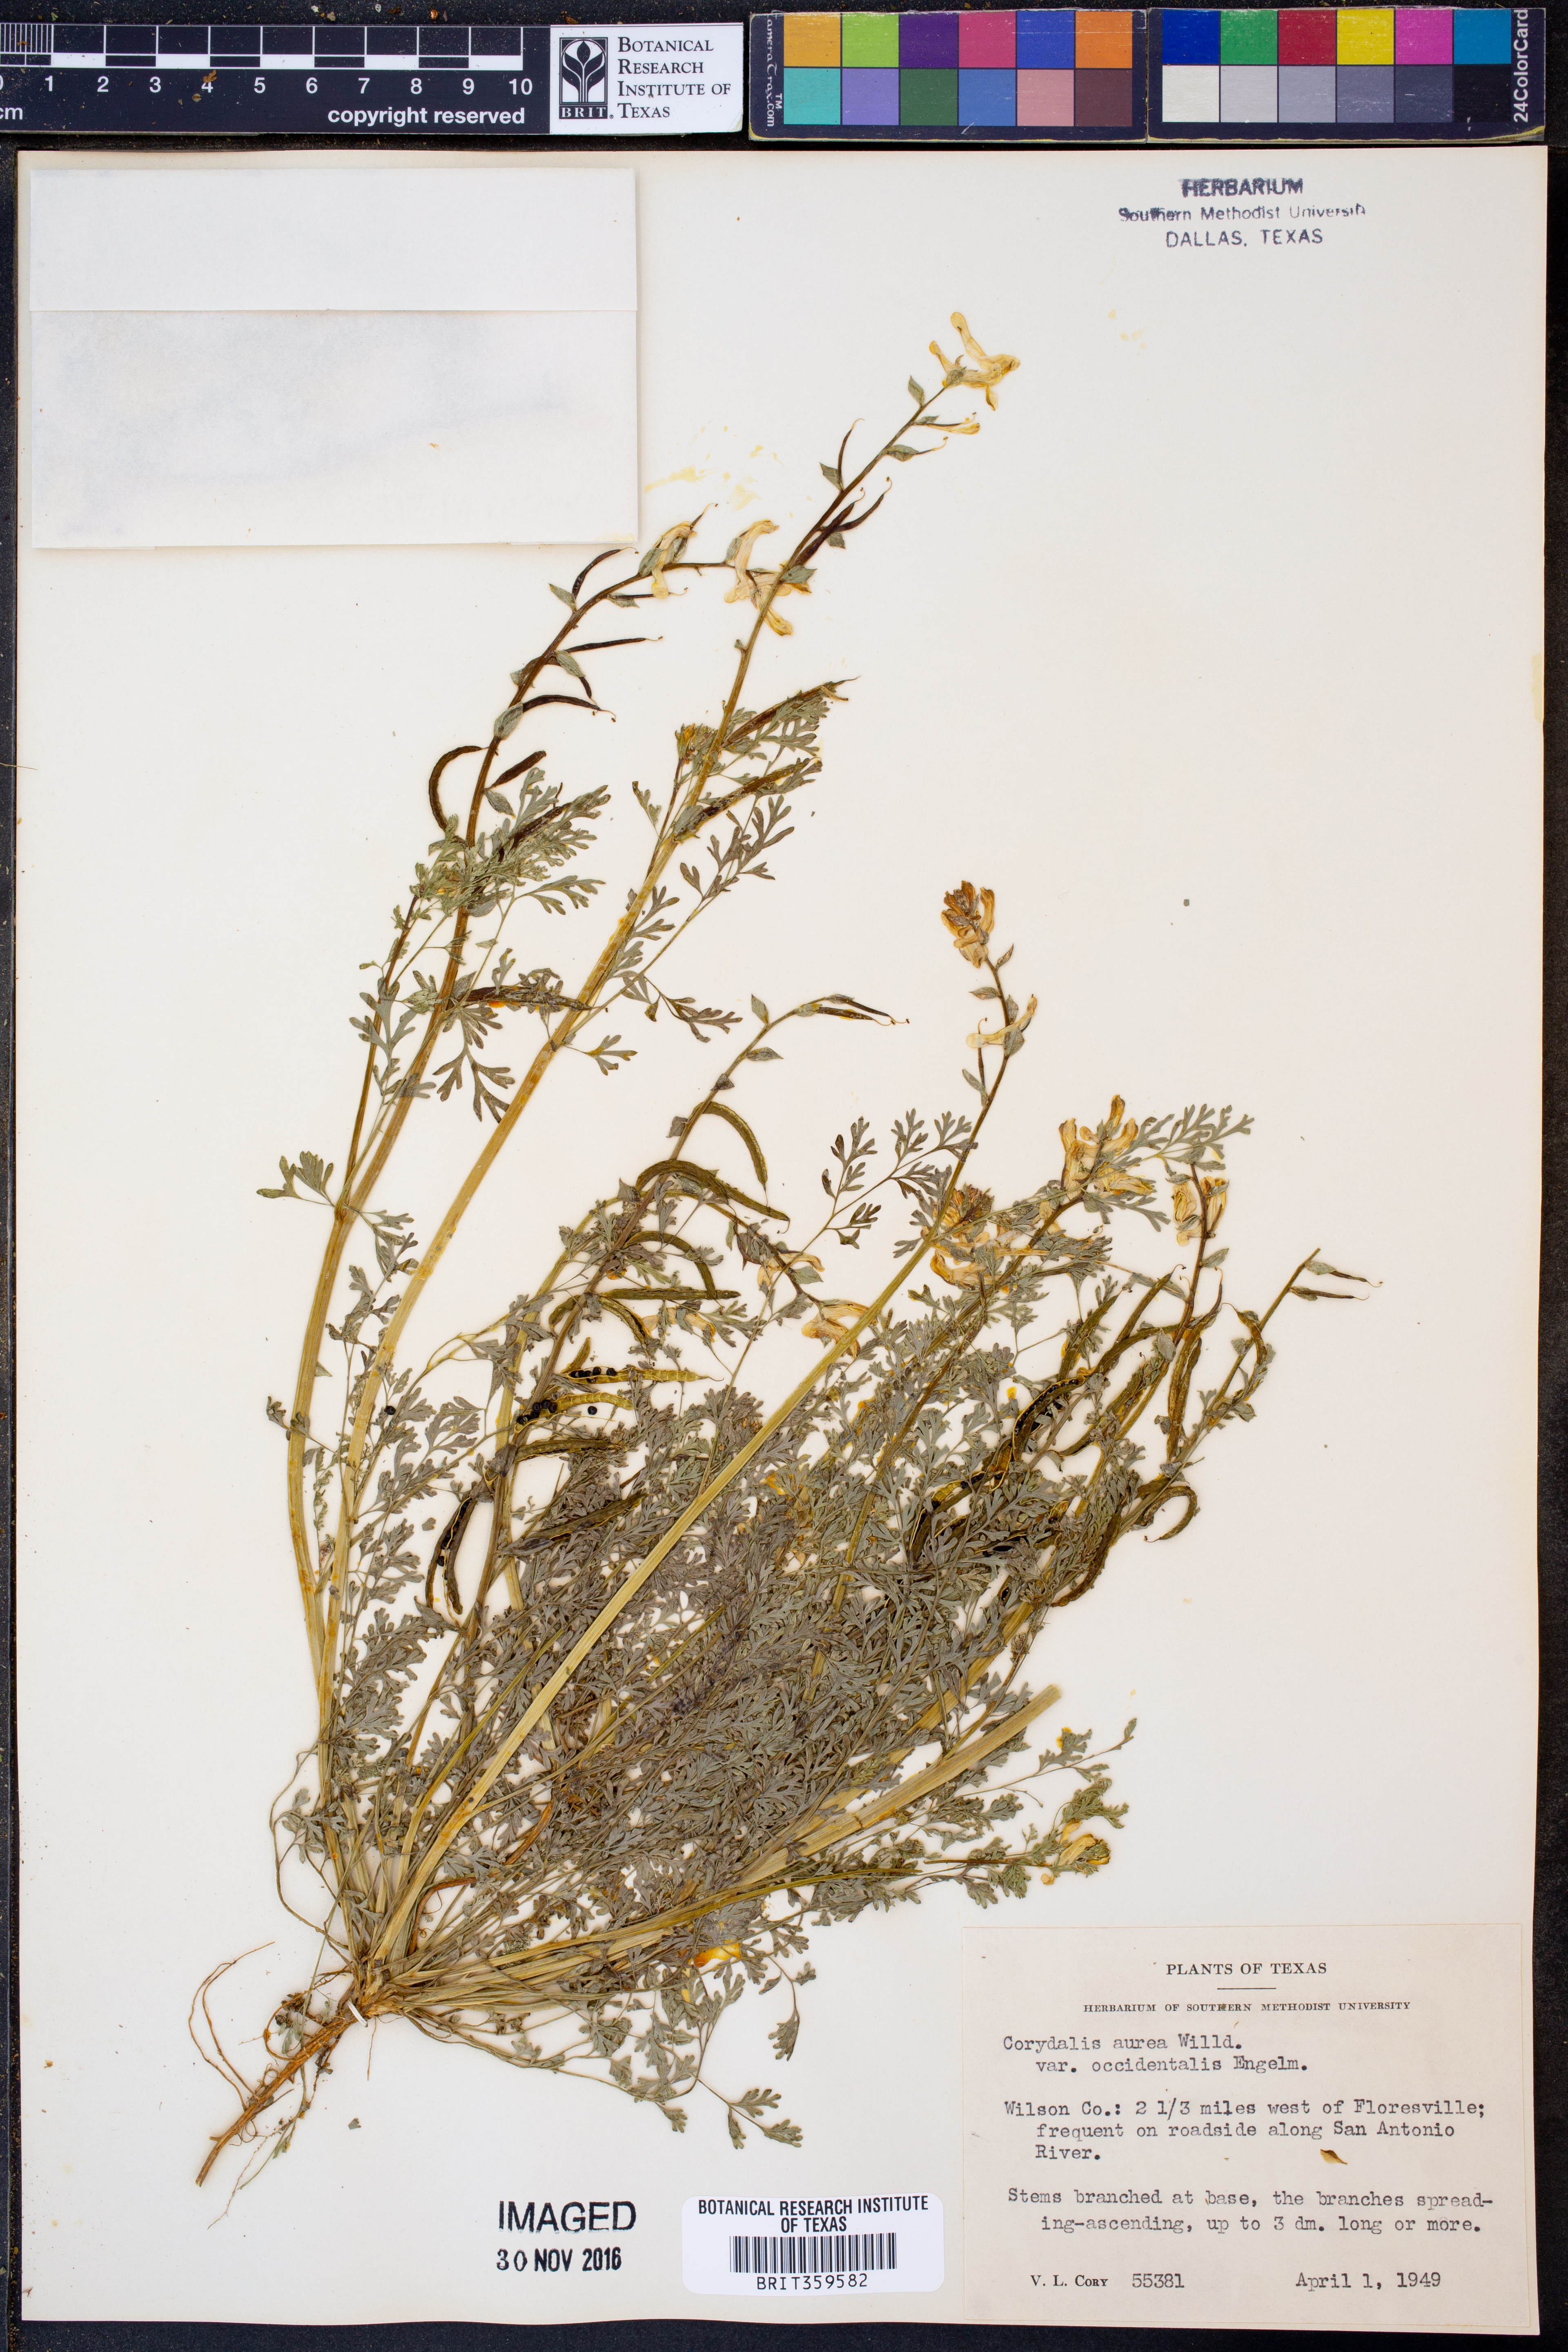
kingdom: Plantae
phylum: Tracheophyta
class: Magnoliopsida
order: Ranunculales
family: Papaveraceae
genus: Corydalis
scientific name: Corydalis curvisiliqua
